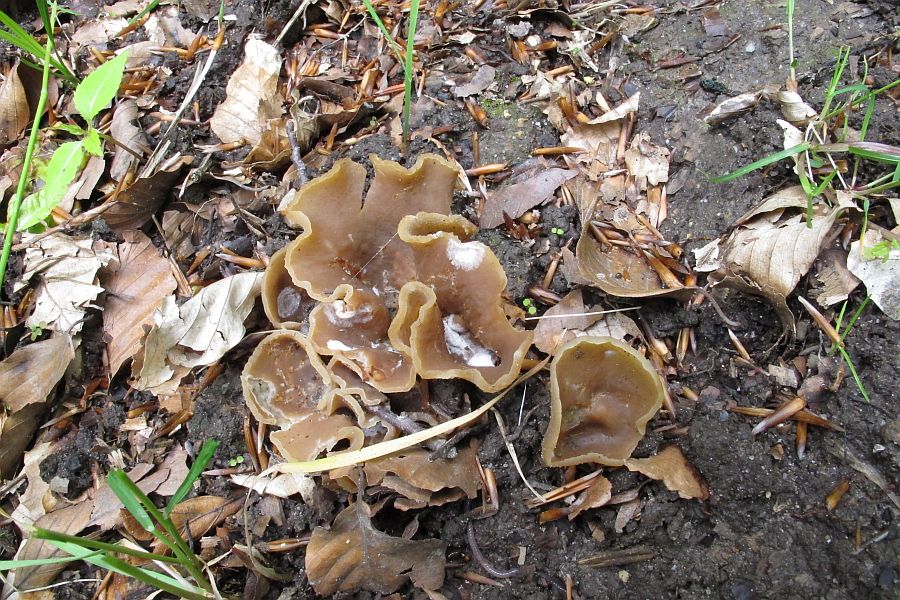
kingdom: Fungi
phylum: Ascomycota
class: Pezizomycetes
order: Pezizales
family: Pezizaceae
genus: Peziza
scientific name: Peziza arvernensis
